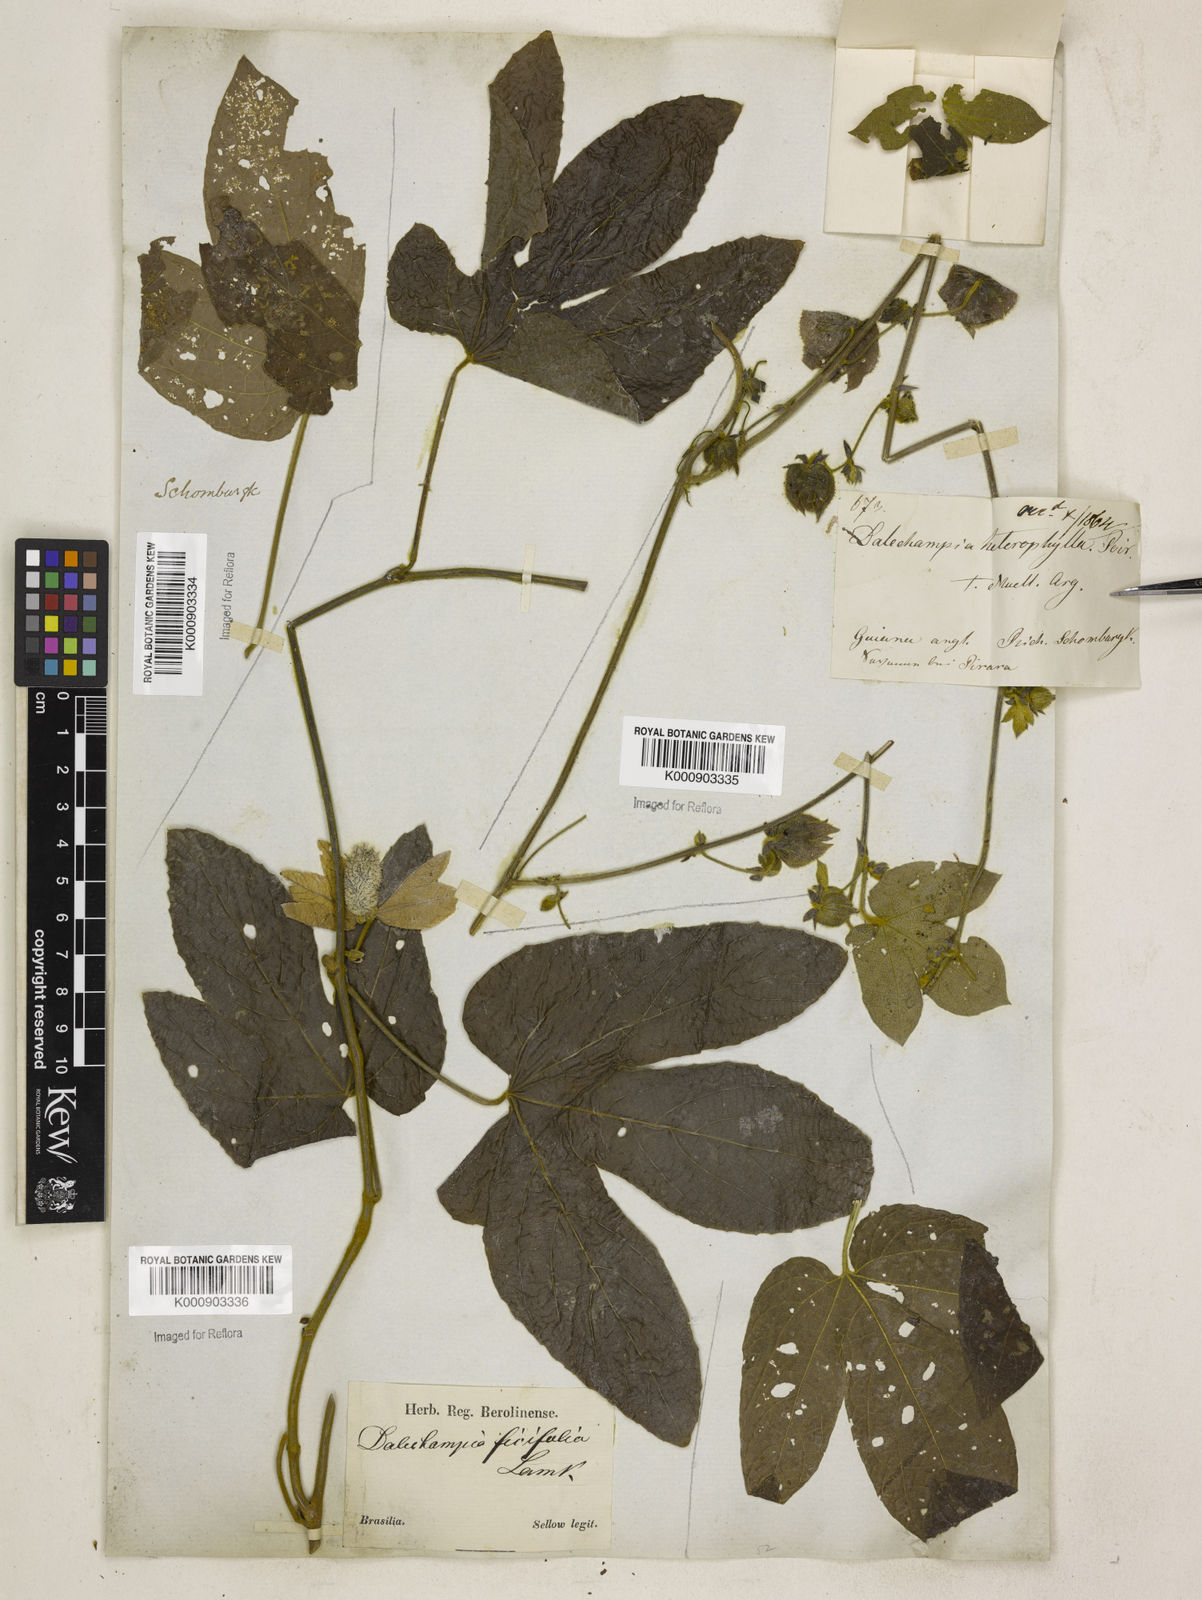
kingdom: Plantae
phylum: Tracheophyta
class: Magnoliopsida
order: Malpighiales
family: Euphorbiaceae
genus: Dalechampia
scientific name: Dalechampia tiliifolia
